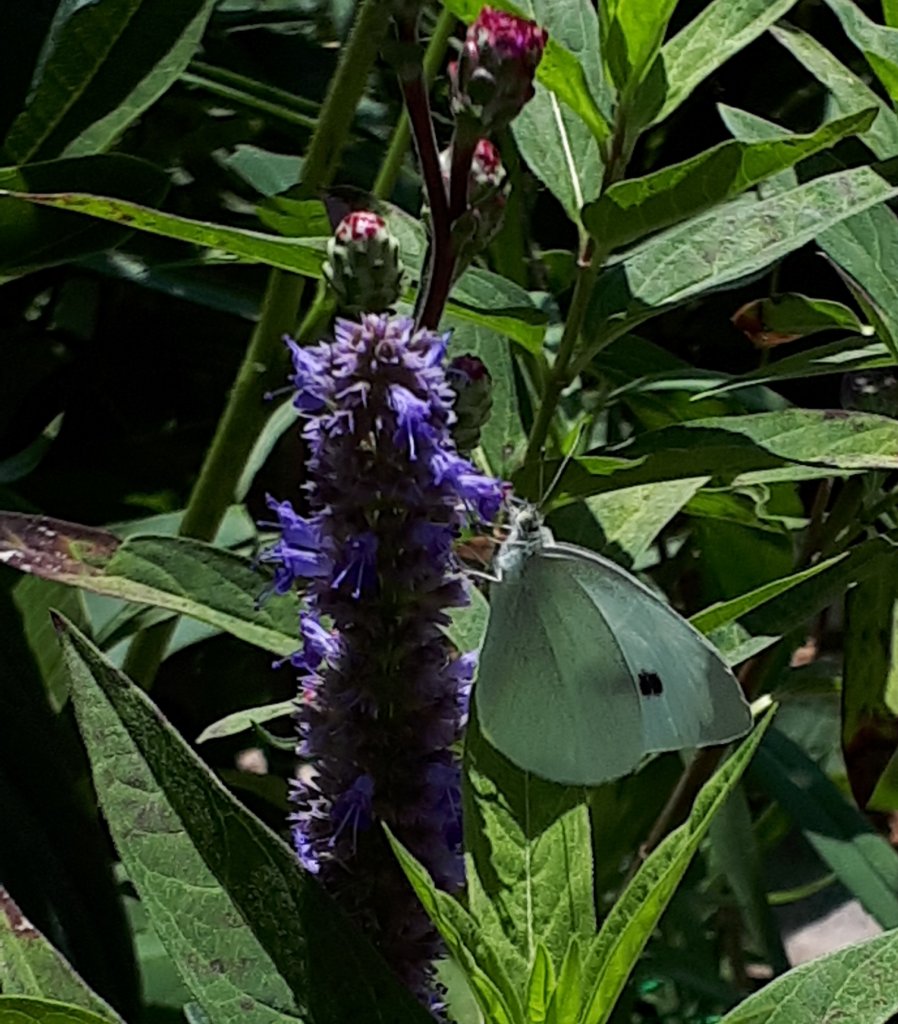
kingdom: Animalia
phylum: Arthropoda
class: Insecta
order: Lepidoptera
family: Pieridae
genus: Pieris
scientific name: Pieris rapae
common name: Cabbage White
